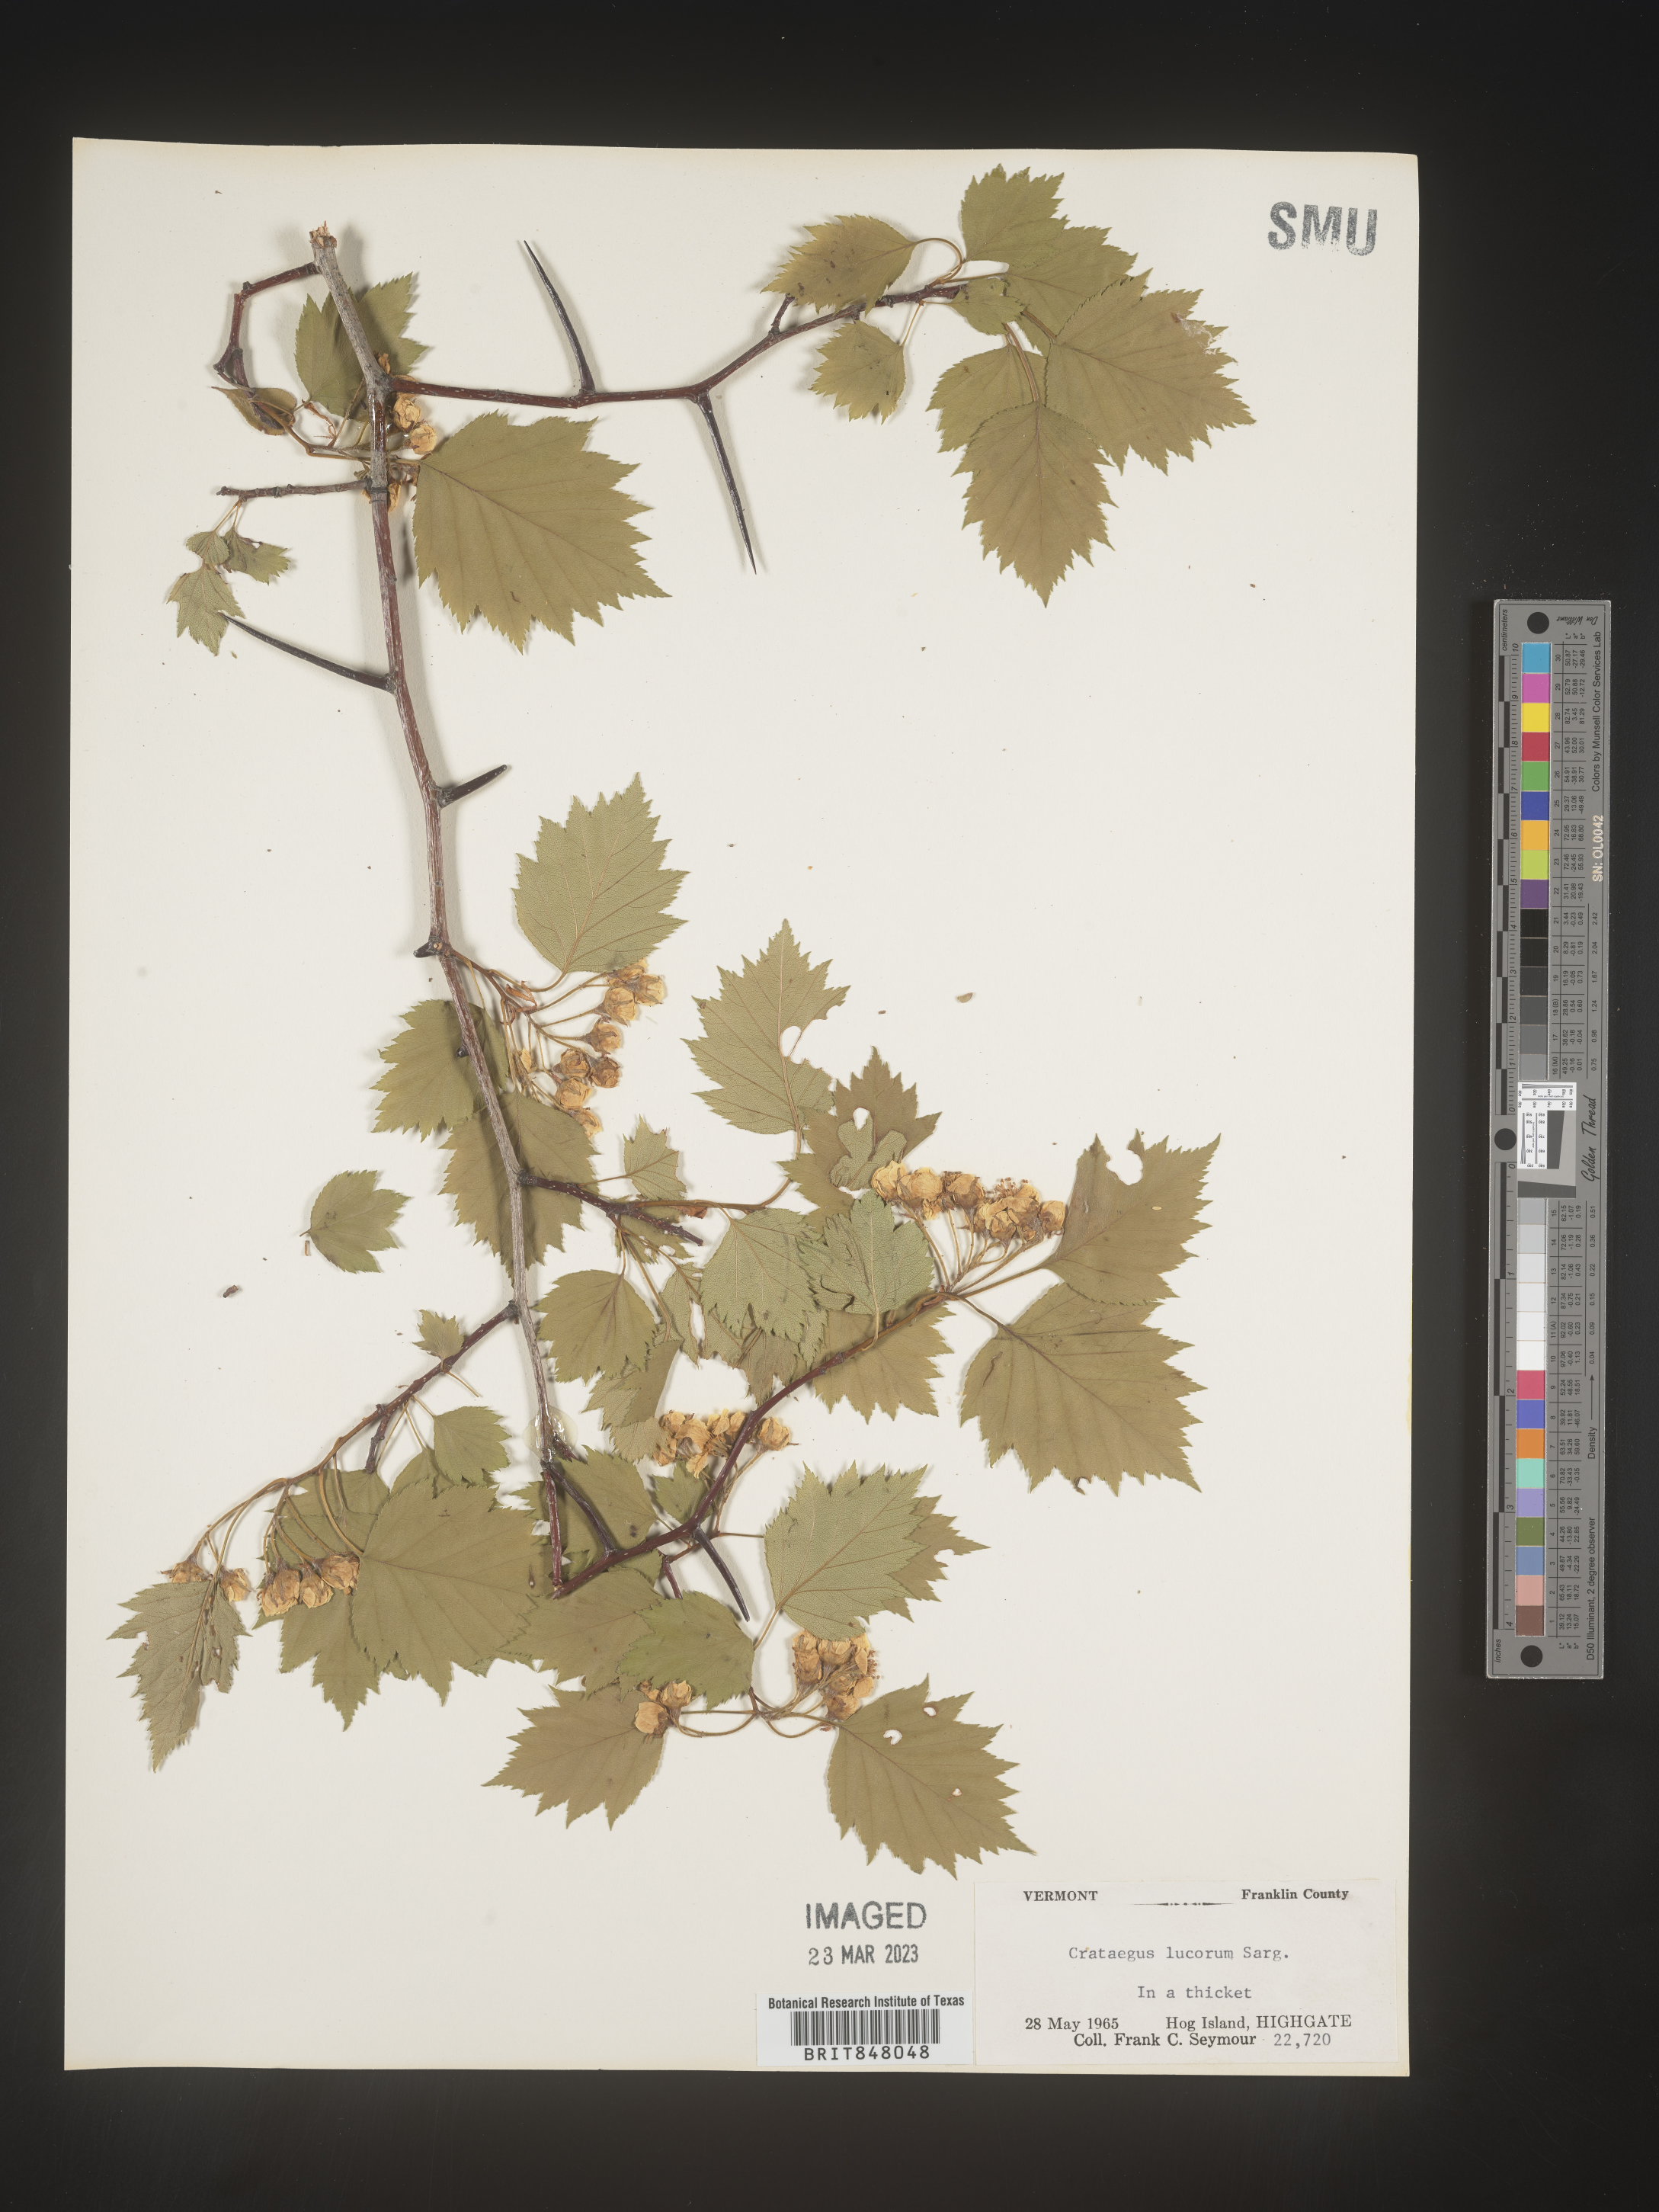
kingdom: Plantae
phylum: Tracheophyta
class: Magnoliopsida
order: Rosales
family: Rosaceae
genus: Crataegus
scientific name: Crataegus
